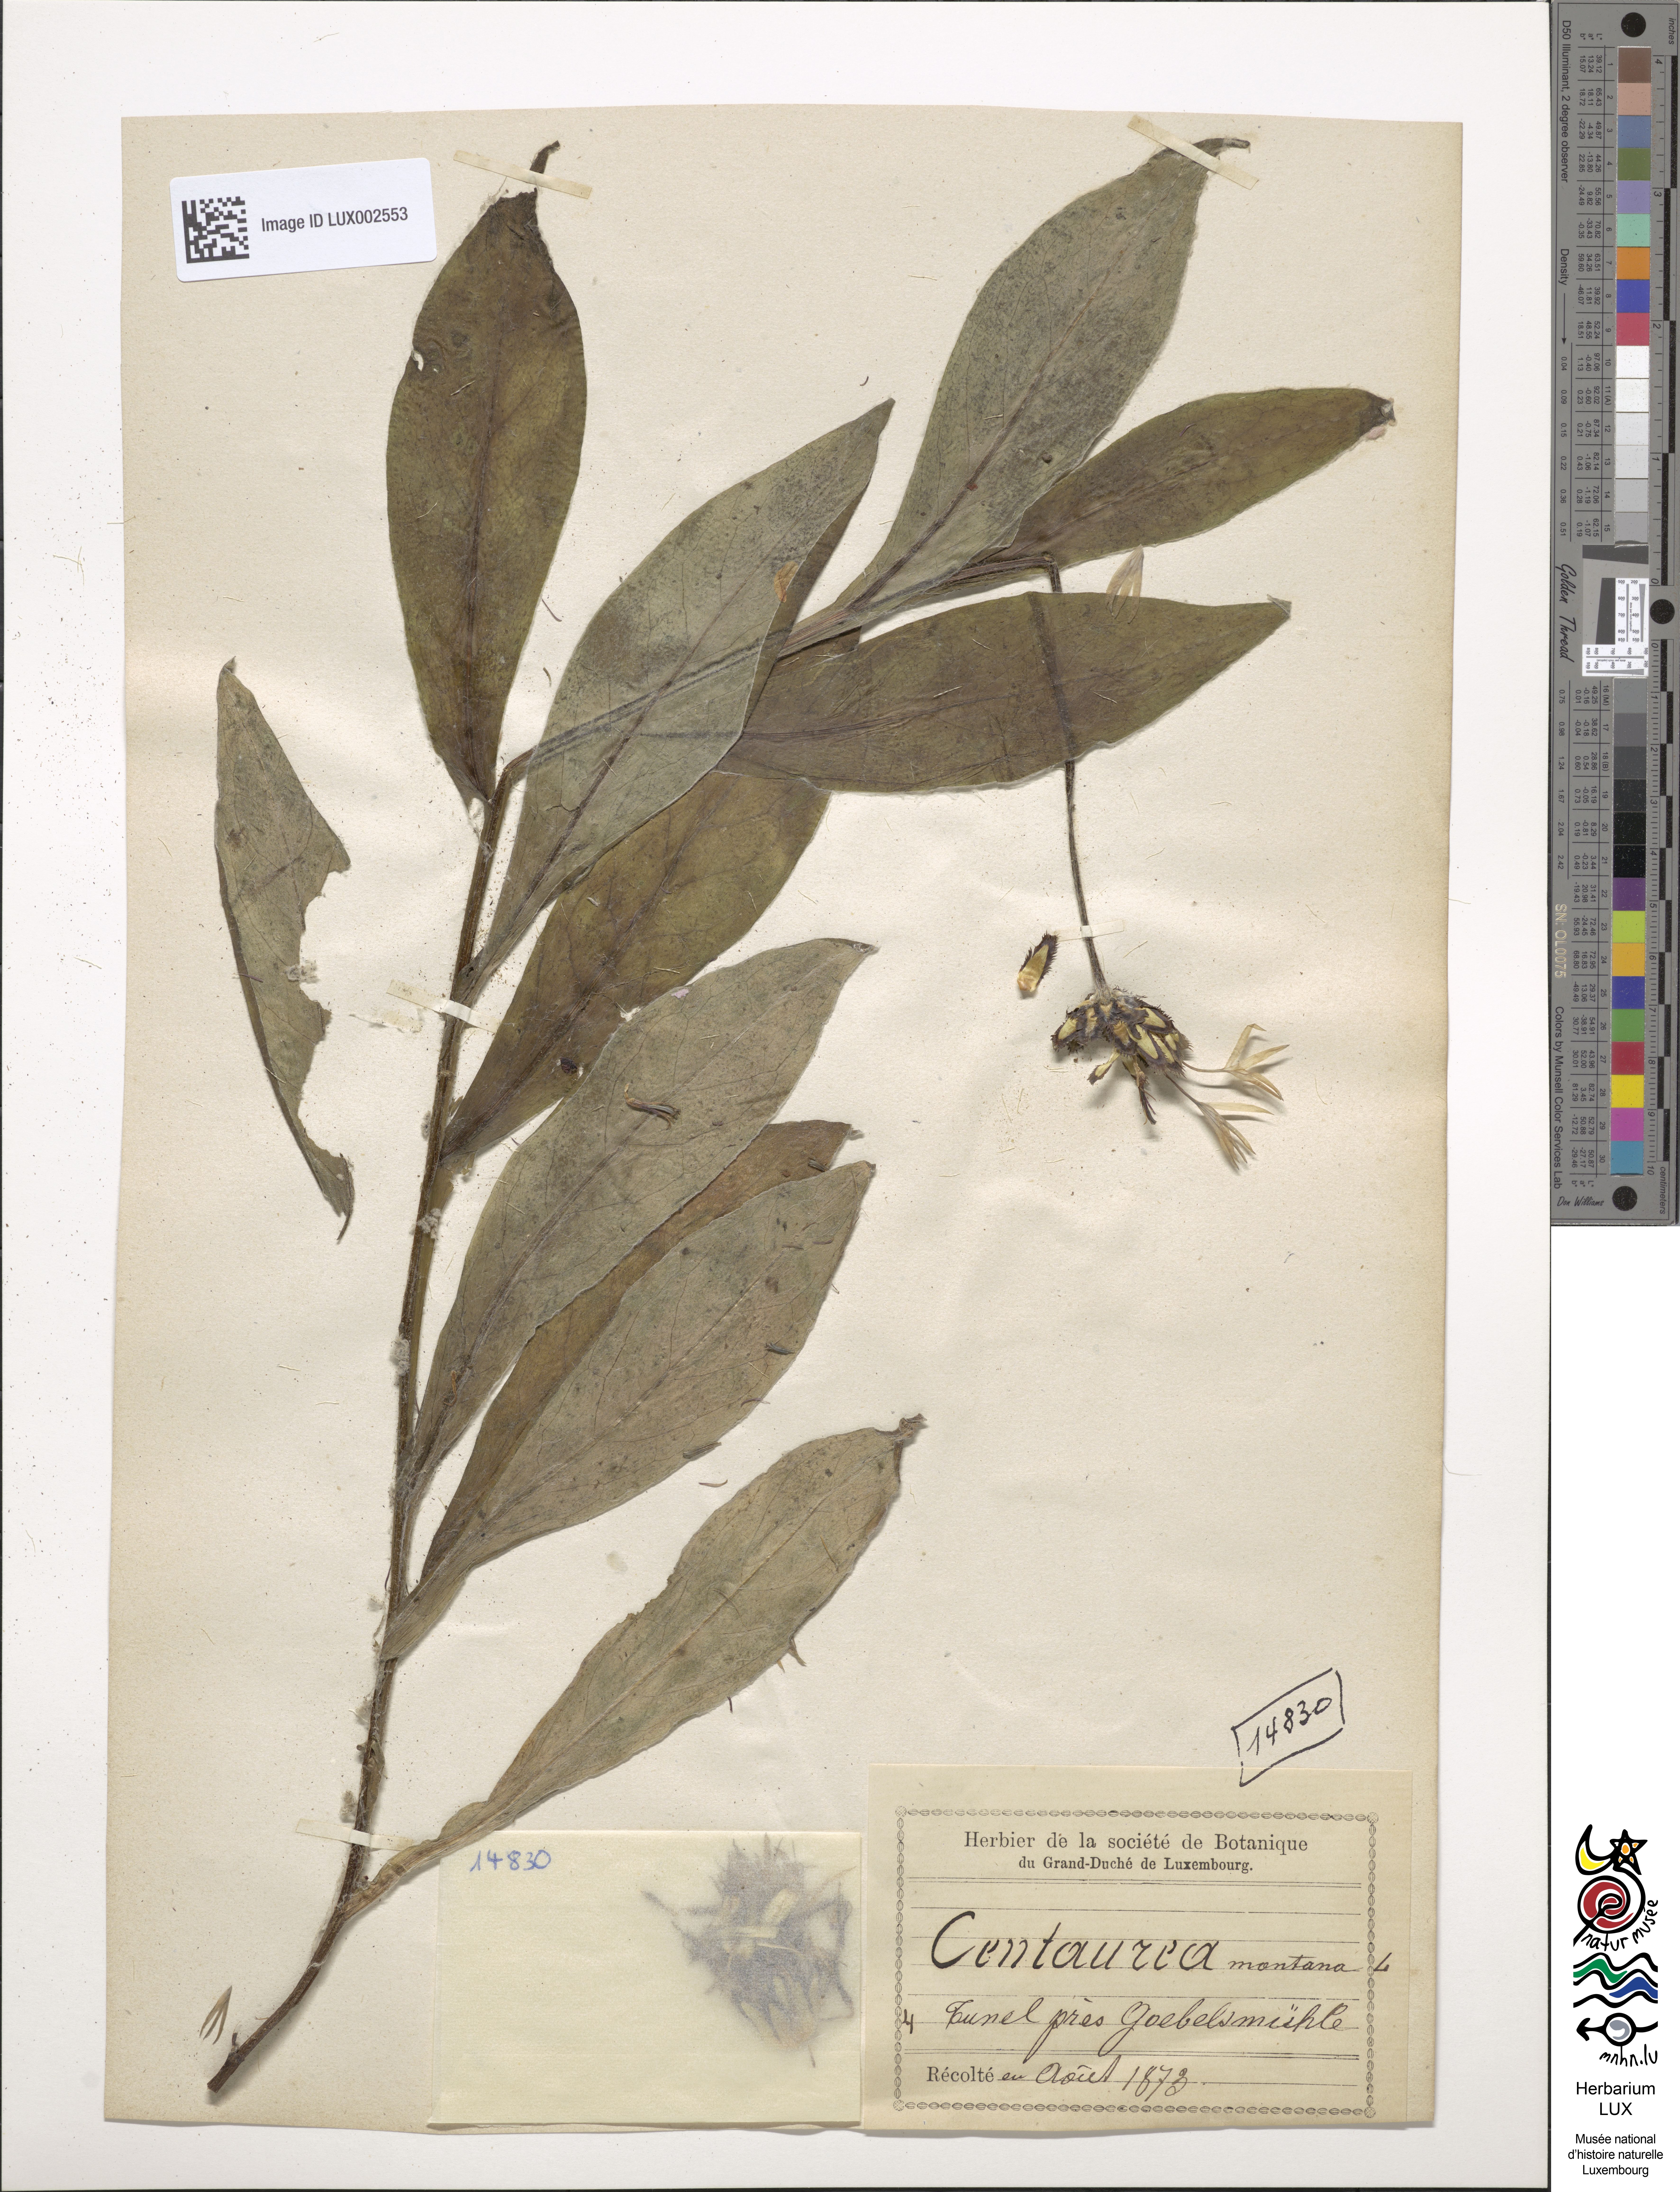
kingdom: Plantae
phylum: Tracheophyta
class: Magnoliopsida
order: Asterales
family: Asteraceae
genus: Centaurea
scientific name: Centaurea montana
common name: Perennial cornflower
